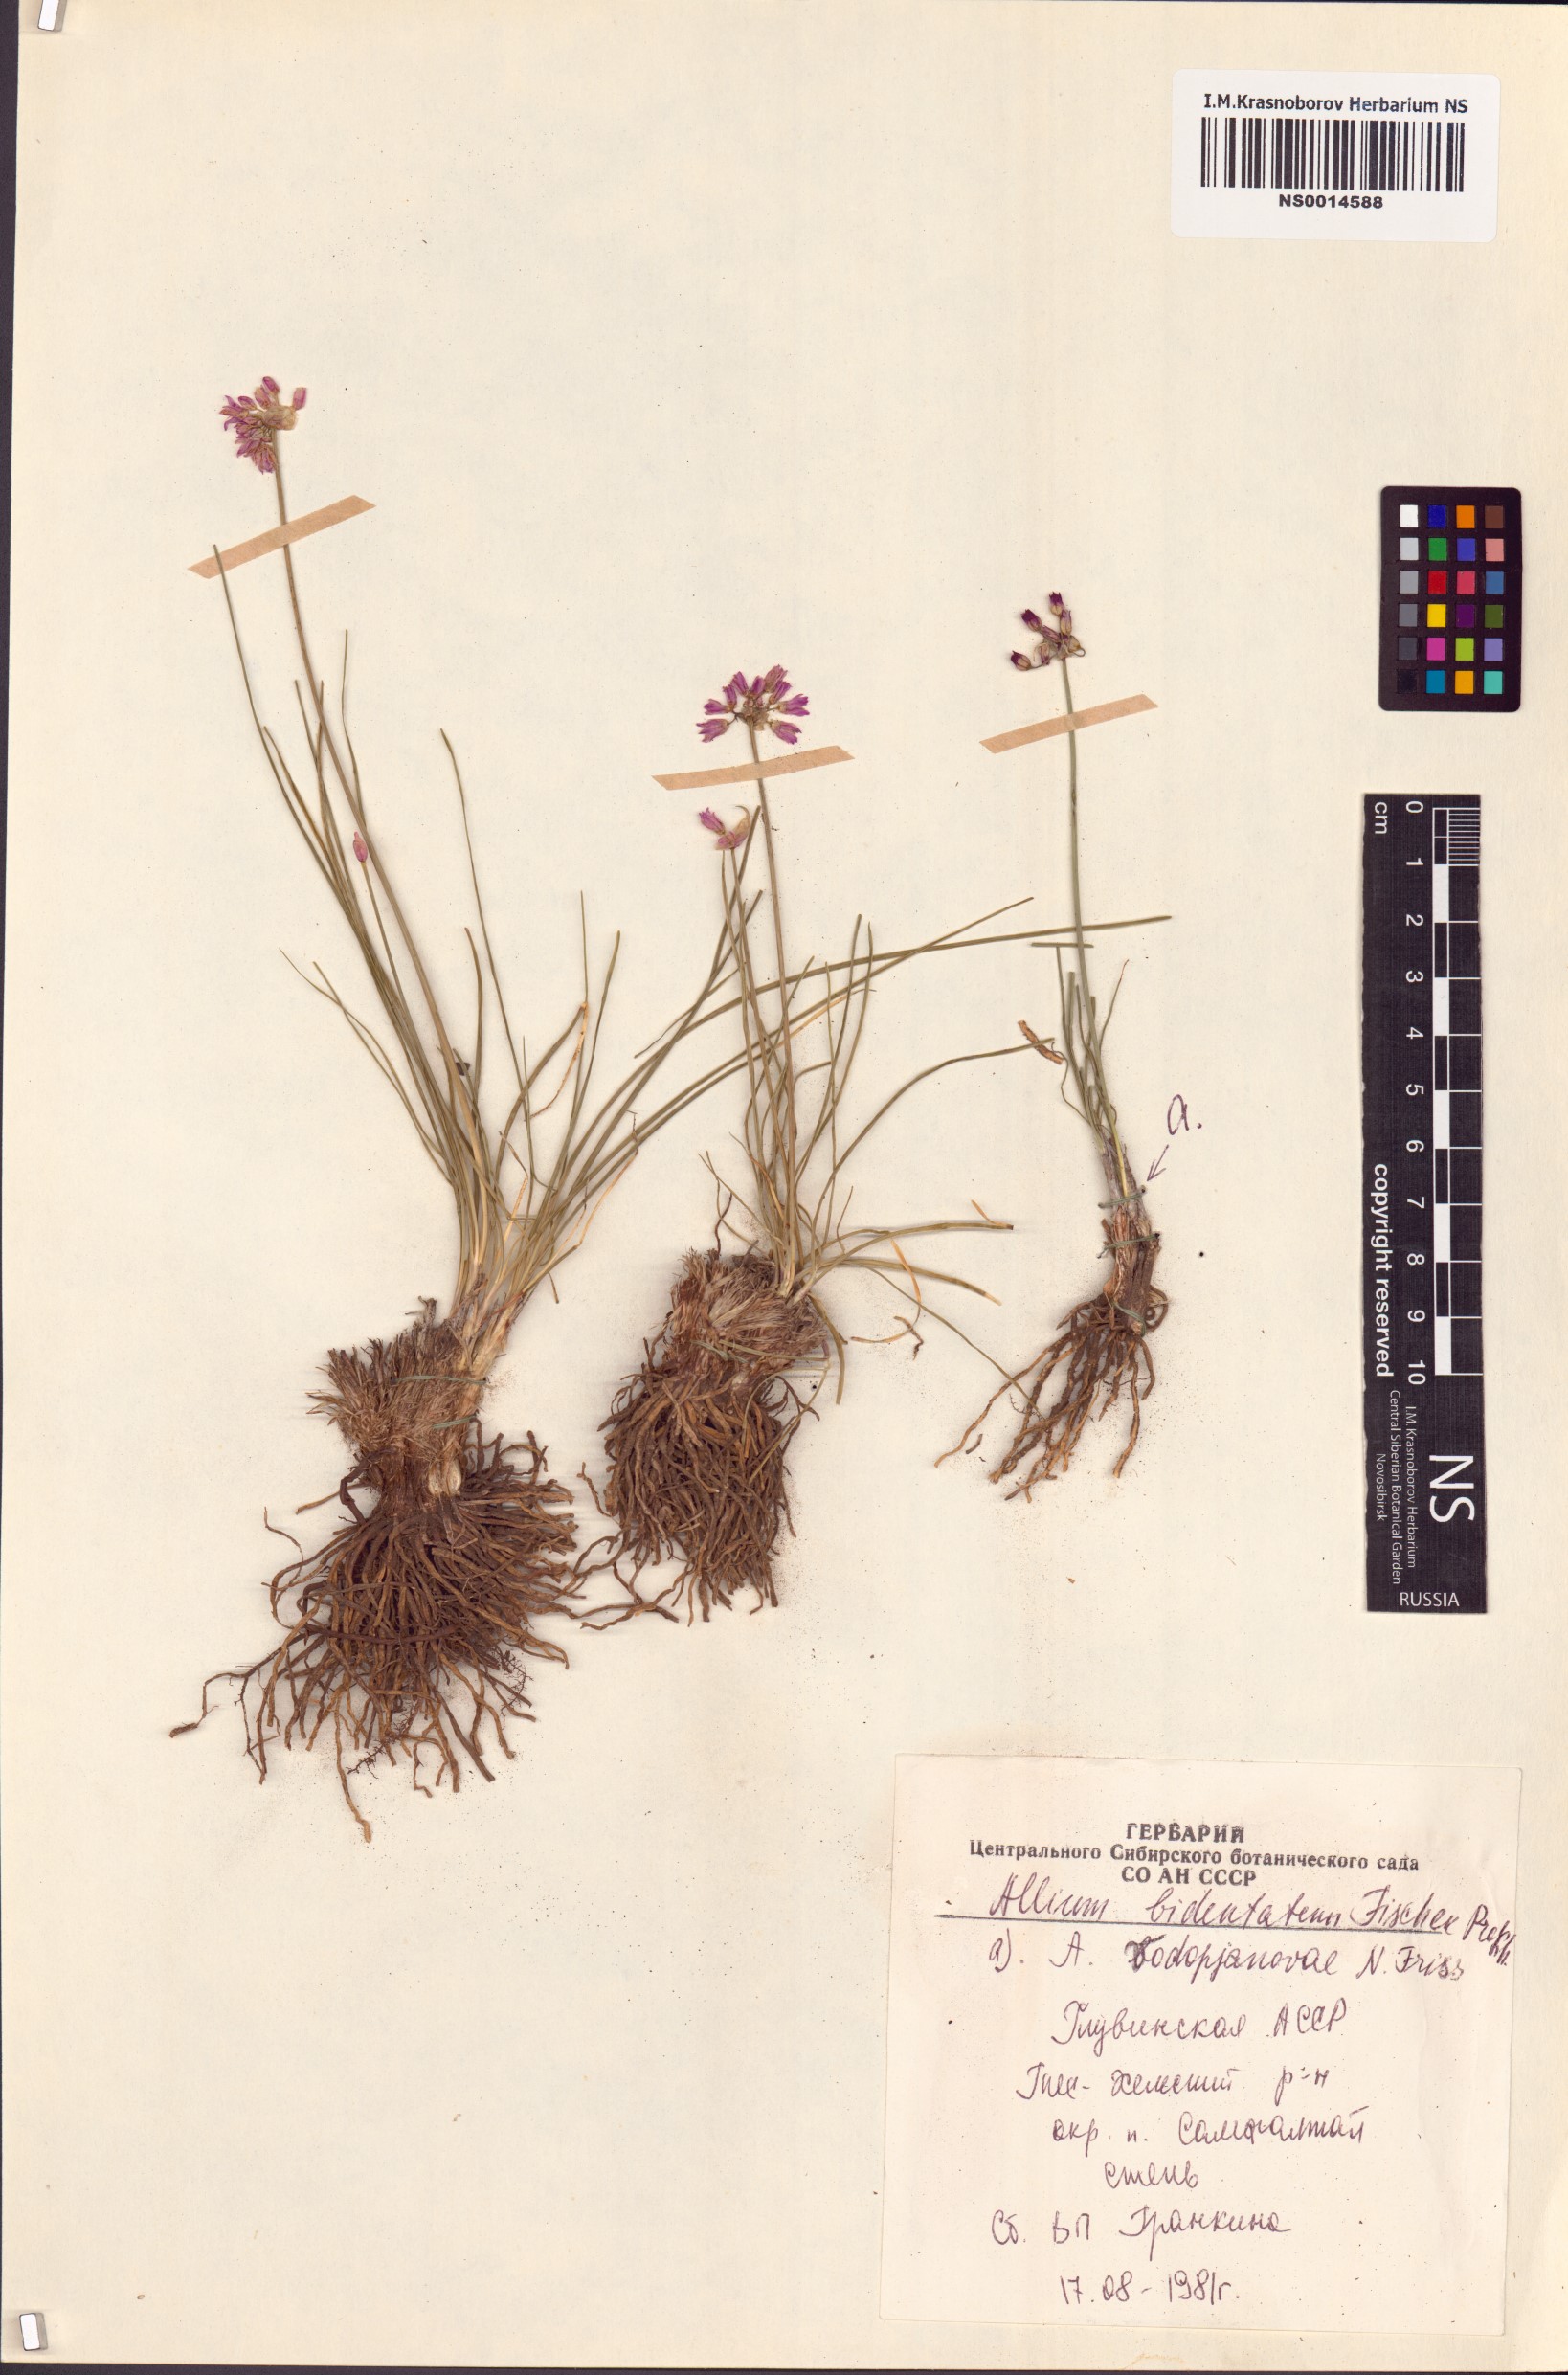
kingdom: Plantae
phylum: Tracheophyta
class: Liliopsida
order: Asparagales
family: Amaryllidaceae
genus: Allium
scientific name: Allium bidentatum
